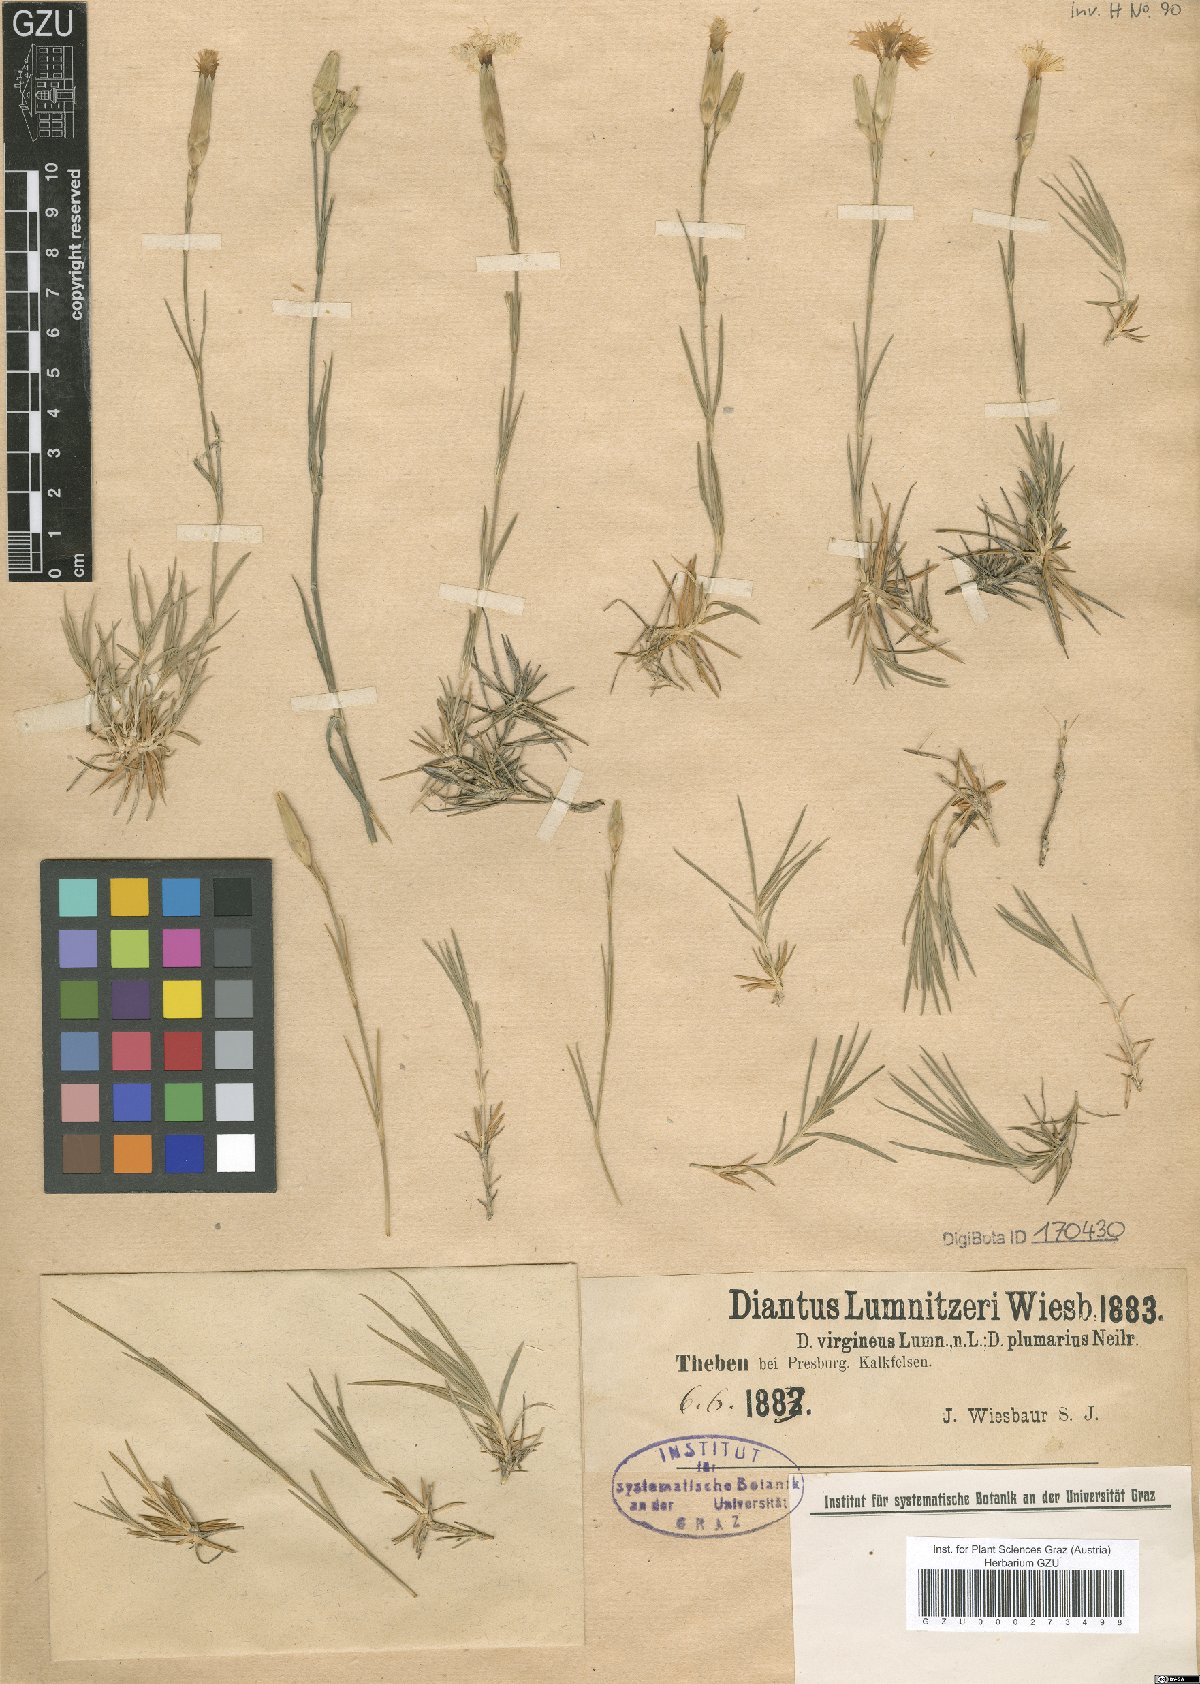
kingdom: Plantae
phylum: Tracheophyta
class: Magnoliopsida
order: Caryophyllales
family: Caryophyllaceae
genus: Dianthus
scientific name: Dianthus praecox
